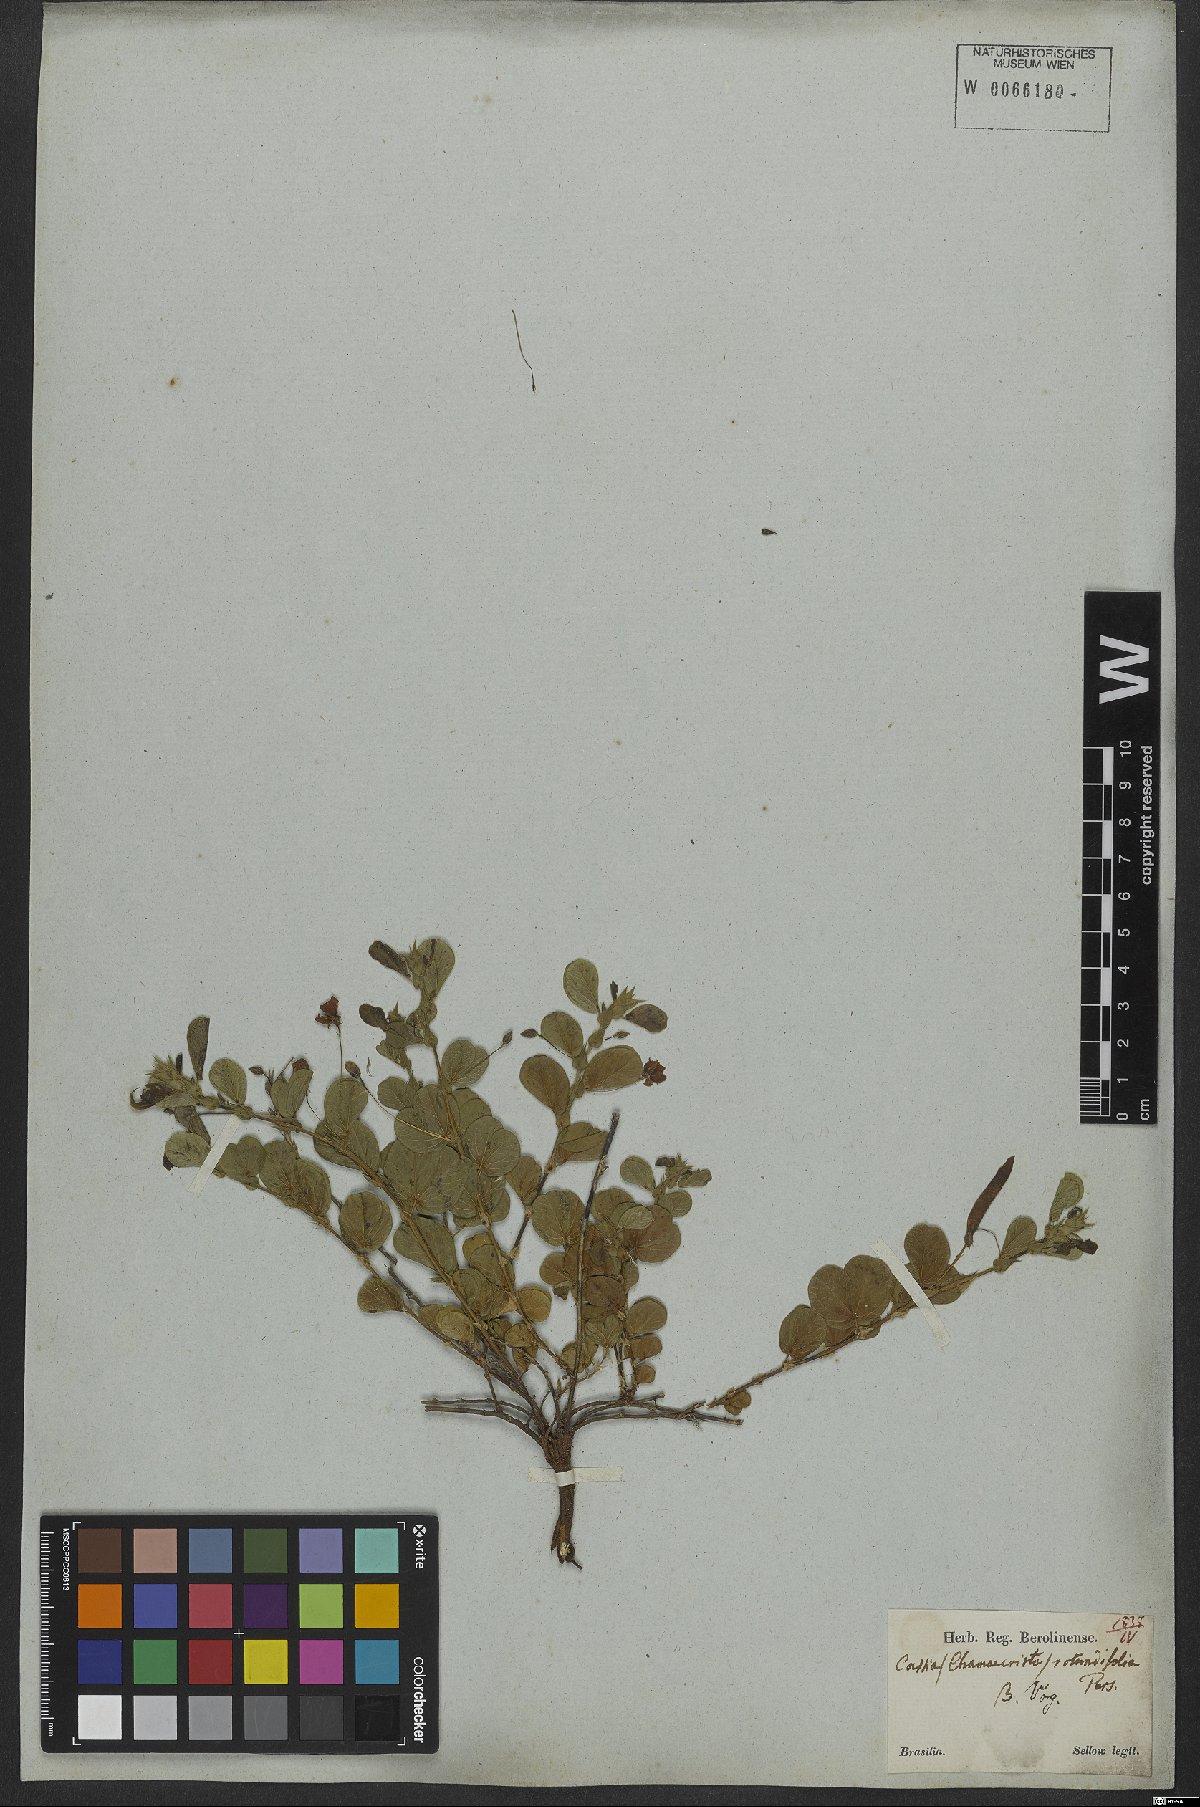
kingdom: Plantae
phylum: Tracheophyta
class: Magnoliopsida
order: Fabales
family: Fabaceae
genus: Chamaecrista
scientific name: Chamaecrista rotundifolia
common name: Round-leaf cassia
